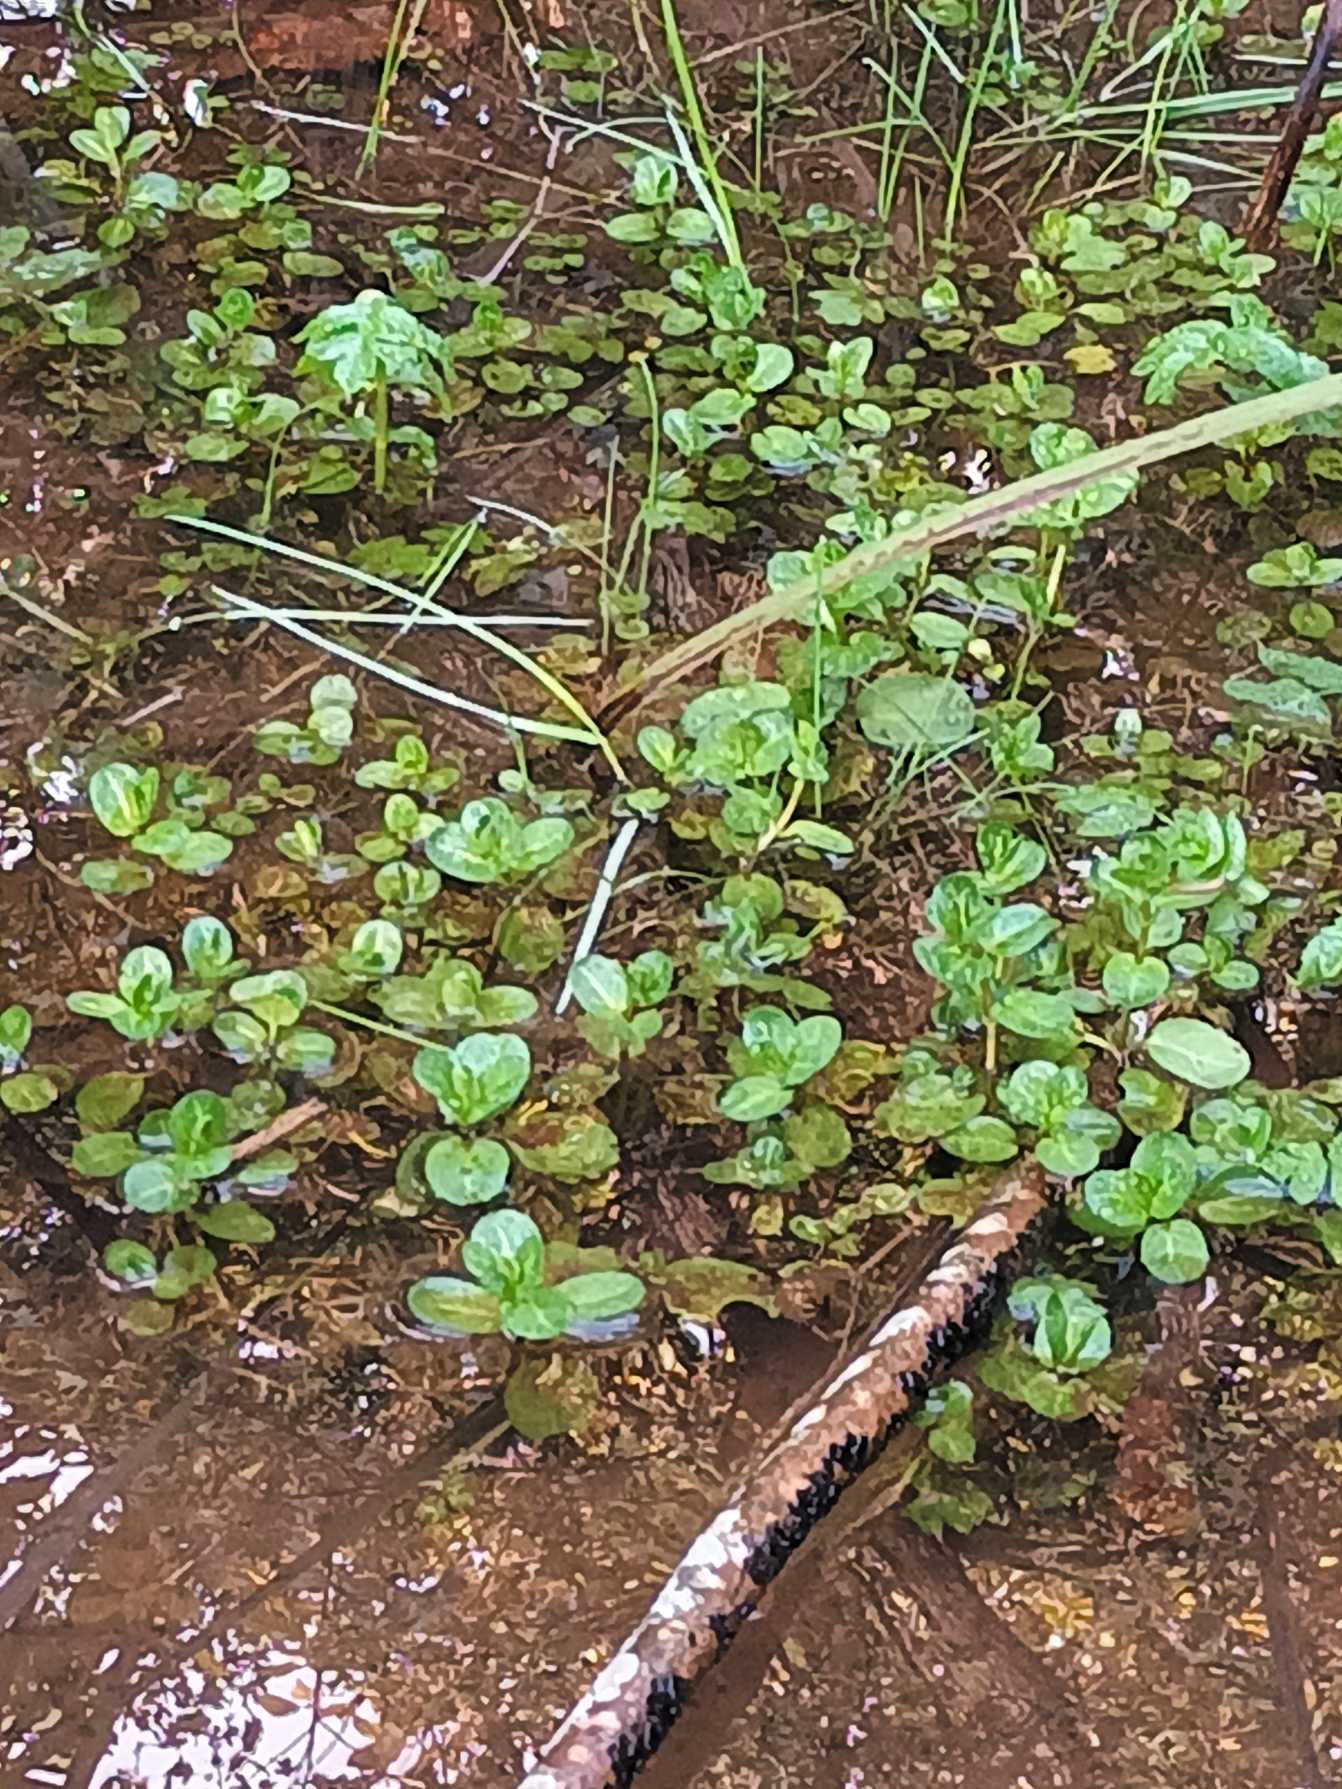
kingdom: Plantae
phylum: Tracheophyta
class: Magnoliopsida
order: Lamiales
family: Plantaginaceae
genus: Veronica
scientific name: Veronica beccabunga
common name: Tykbladet ærenpris
